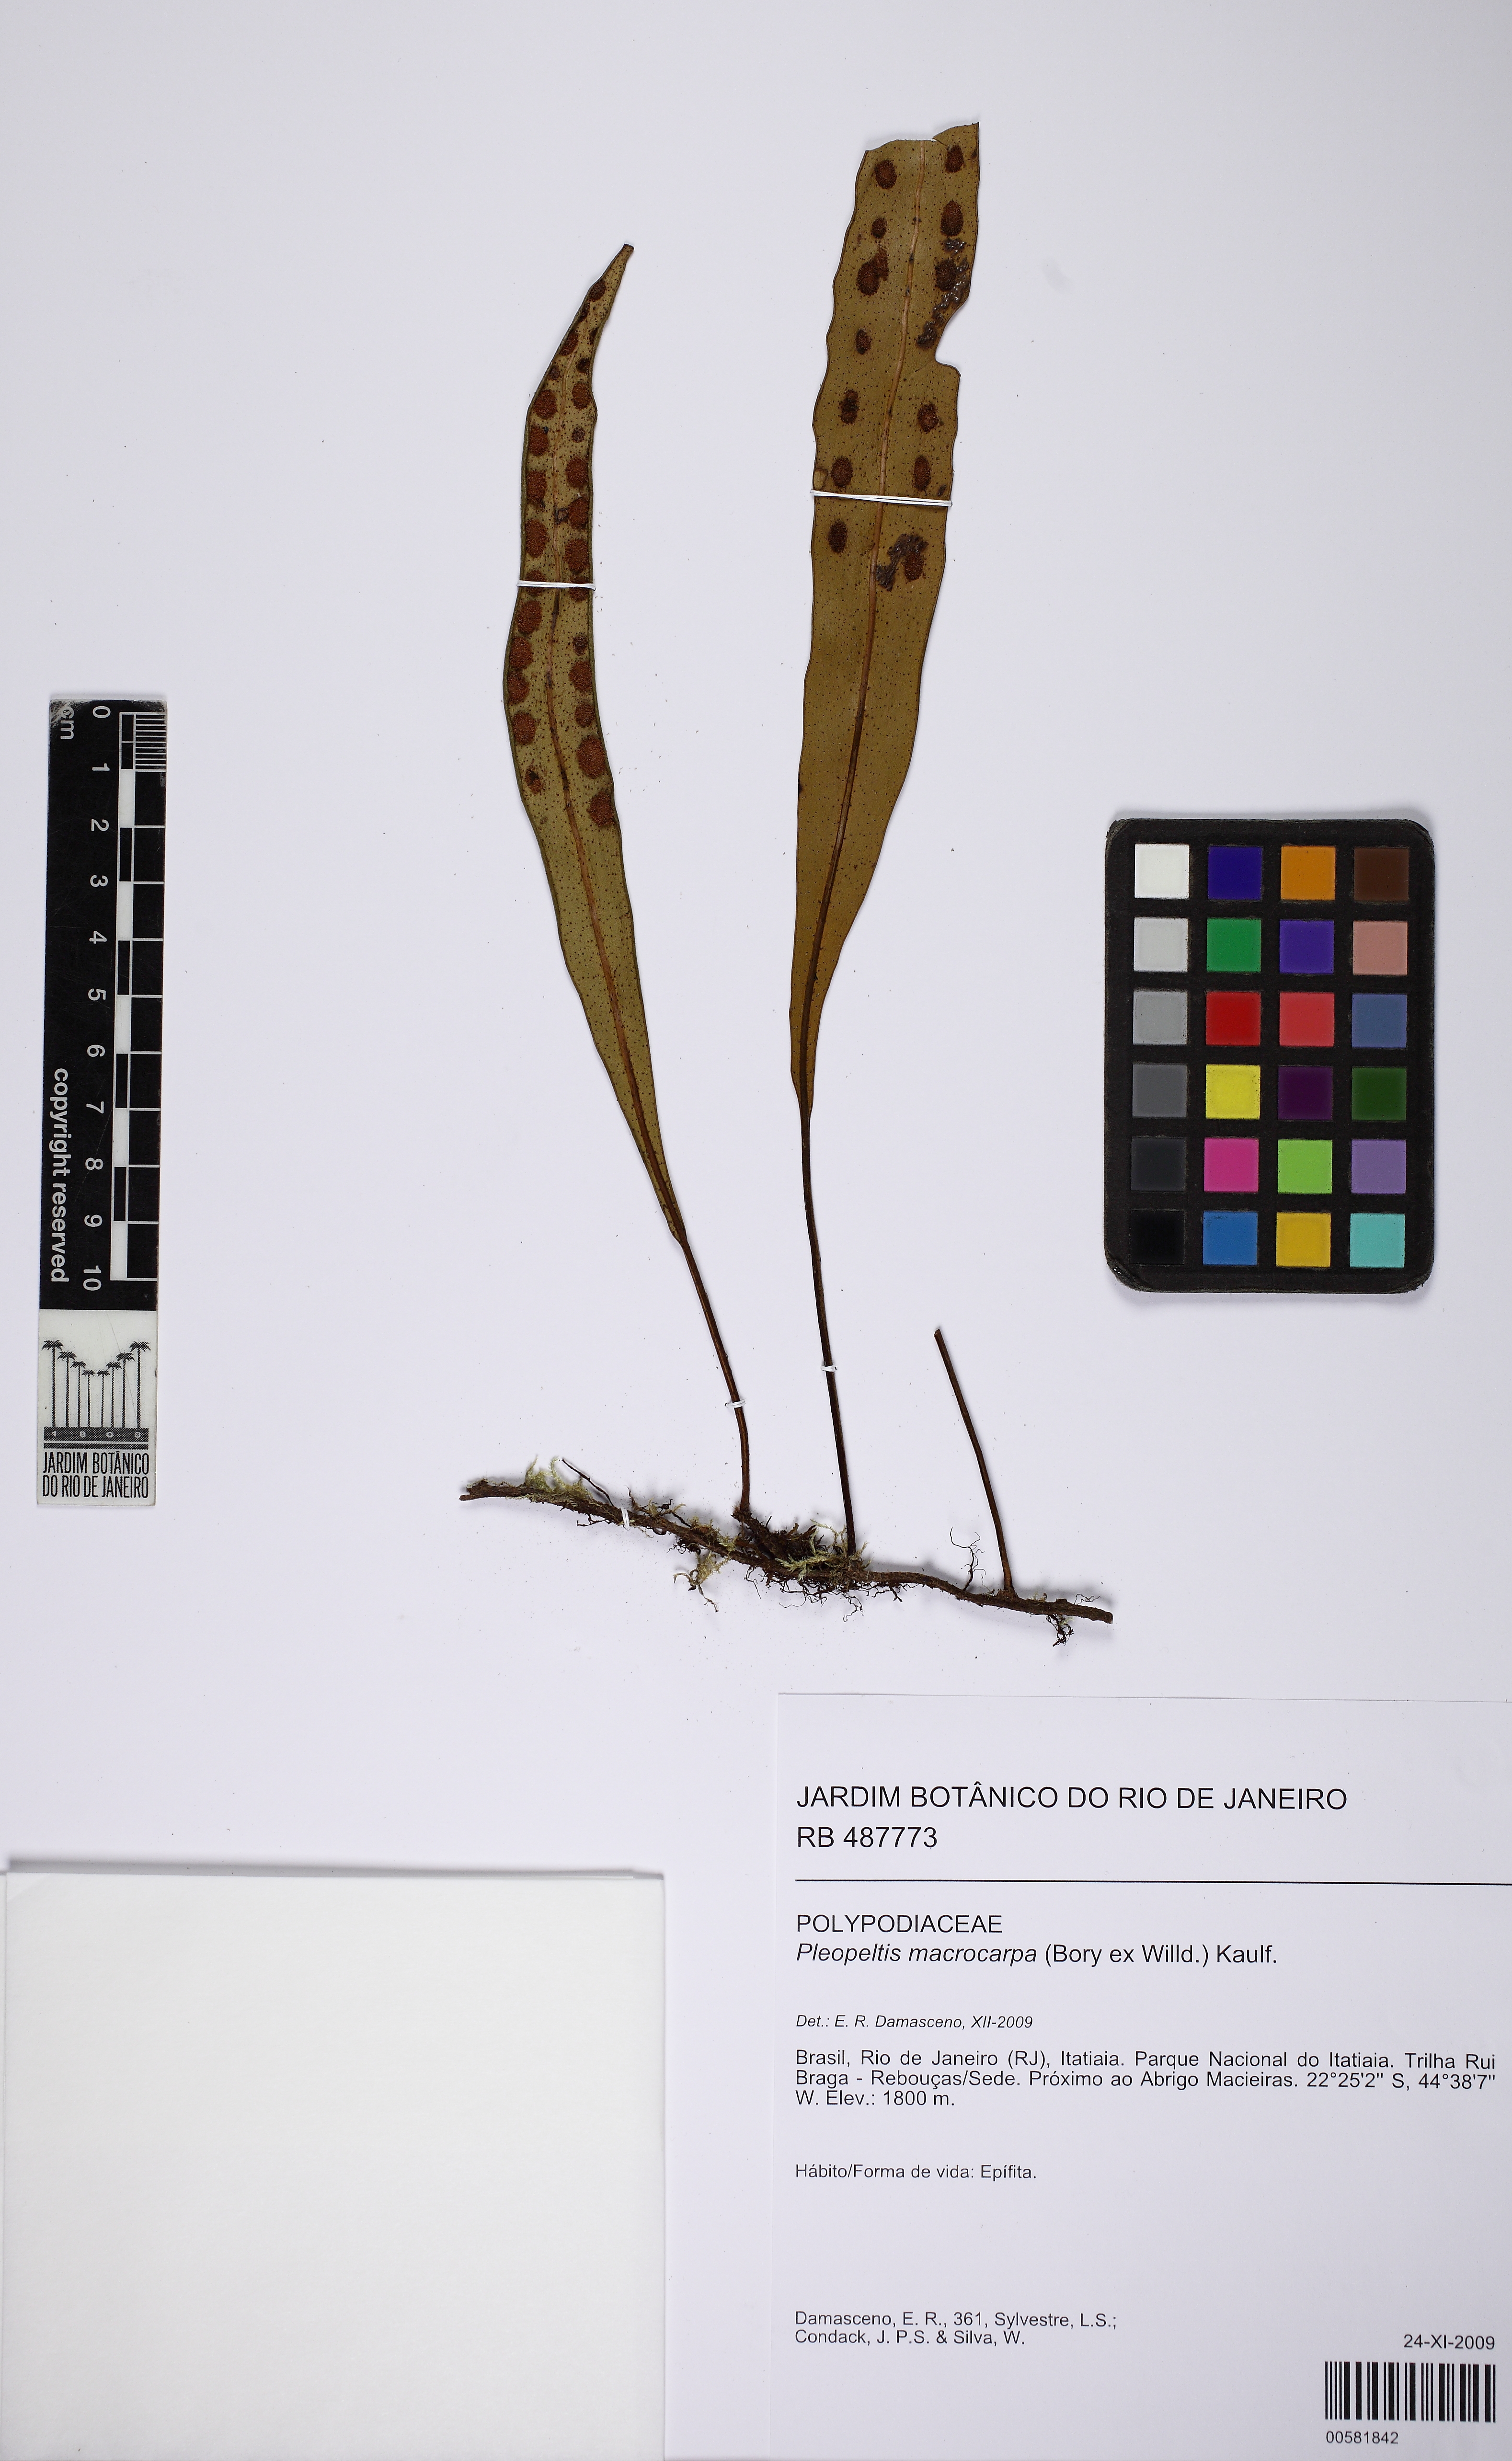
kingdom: Plantae
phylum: Tracheophyta
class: Polypodiopsida
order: Polypodiales
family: Polypodiaceae
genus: Pleopeltis
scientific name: Pleopeltis macrocarpa
